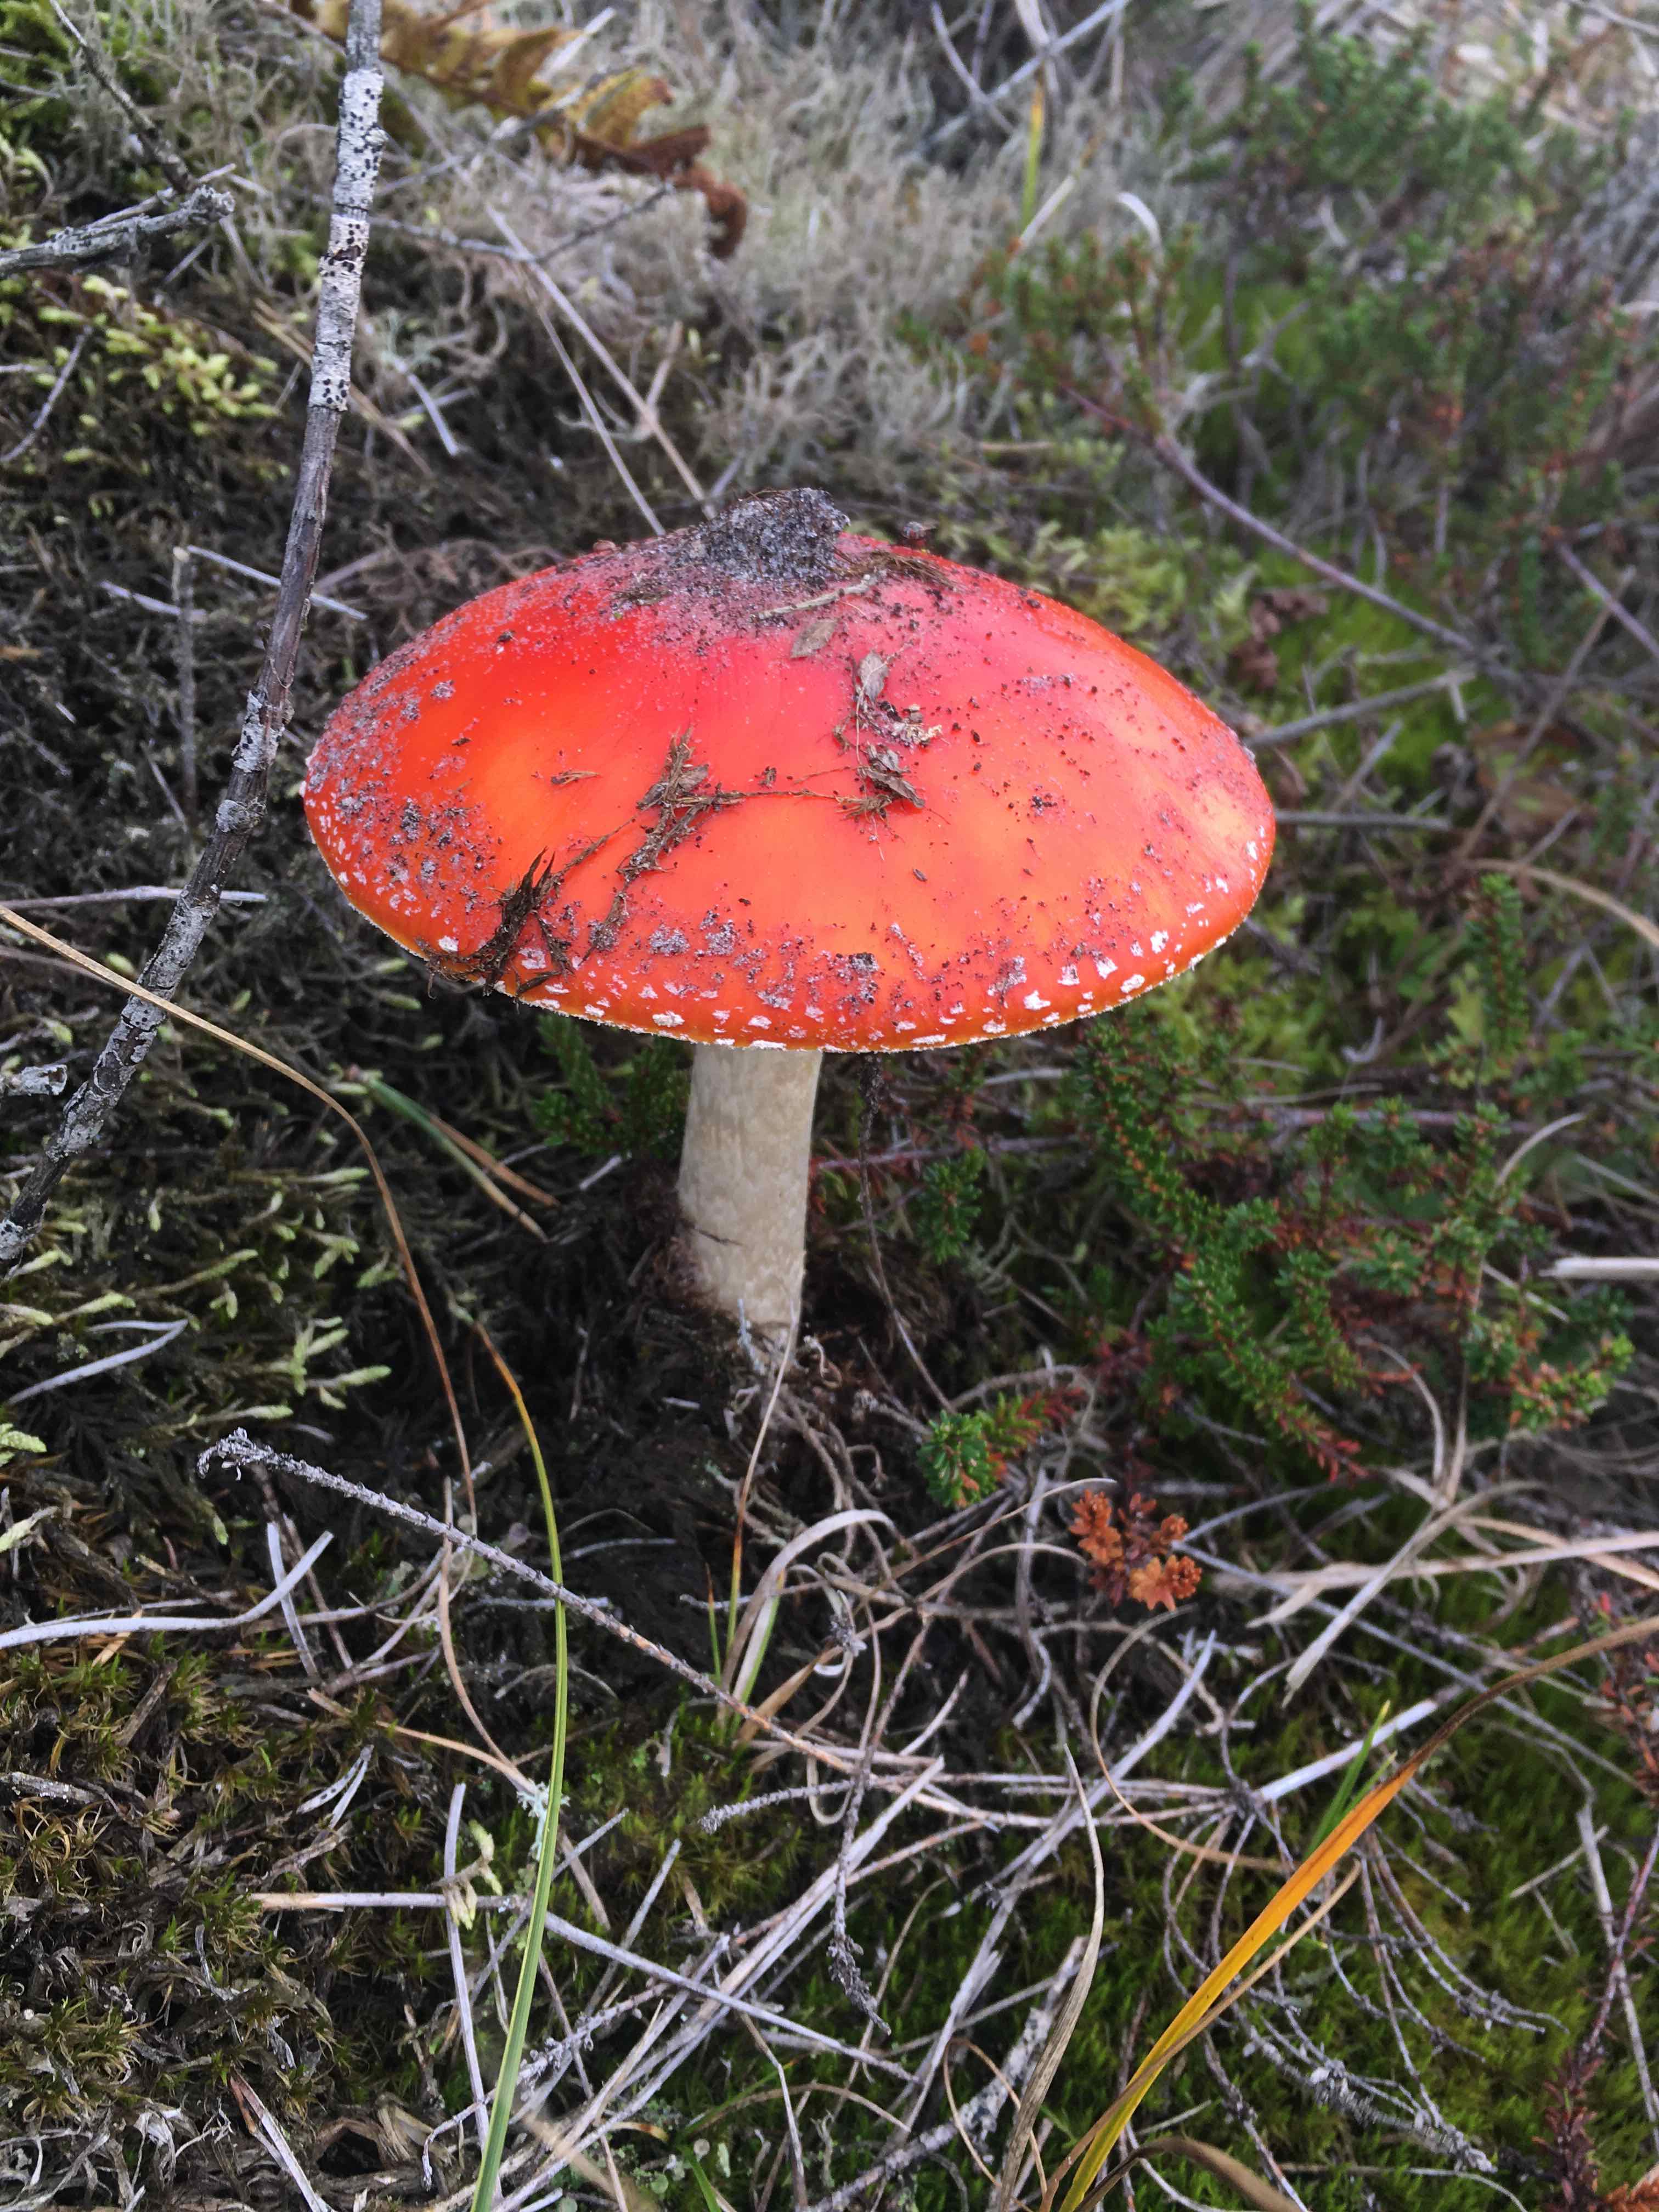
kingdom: Fungi
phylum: Basidiomycota
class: Agaricomycetes
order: Agaricales
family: Amanitaceae
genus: Amanita
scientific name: Amanita muscaria
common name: rød fluesvamp
